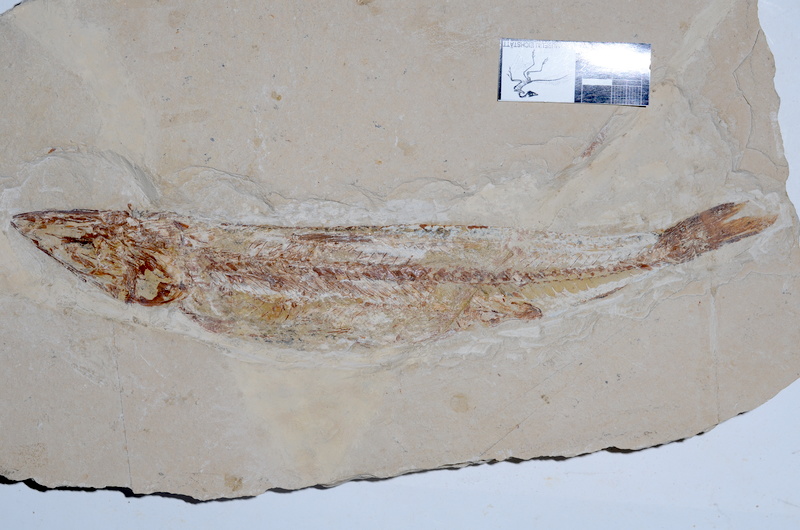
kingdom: Animalia
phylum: Chordata
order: Aulopiformes
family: Aspidopleuridae
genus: Aspidopleurus
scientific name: Aspidopleurus cataphractus
